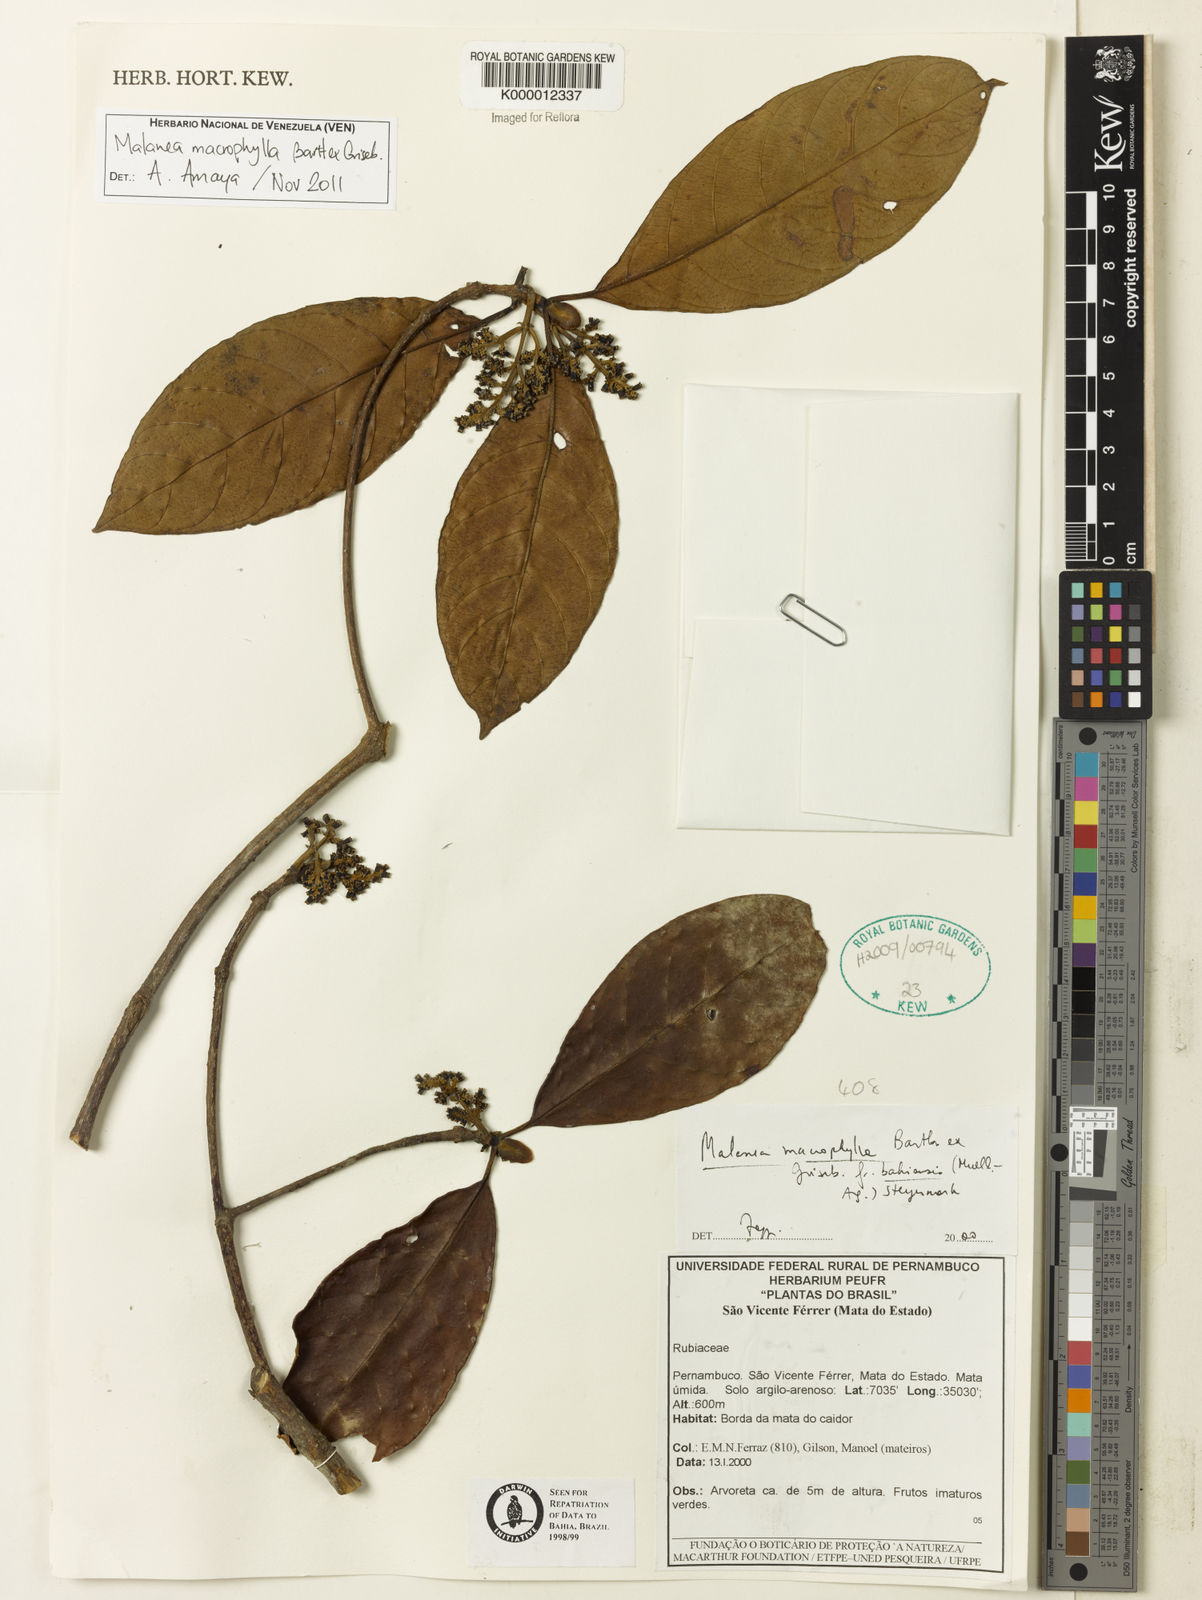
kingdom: Plantae
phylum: Tracheophyta
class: Magnoliopsida
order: Gentianales
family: Rubiaceae
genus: Malanea
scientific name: Malanea glabra
